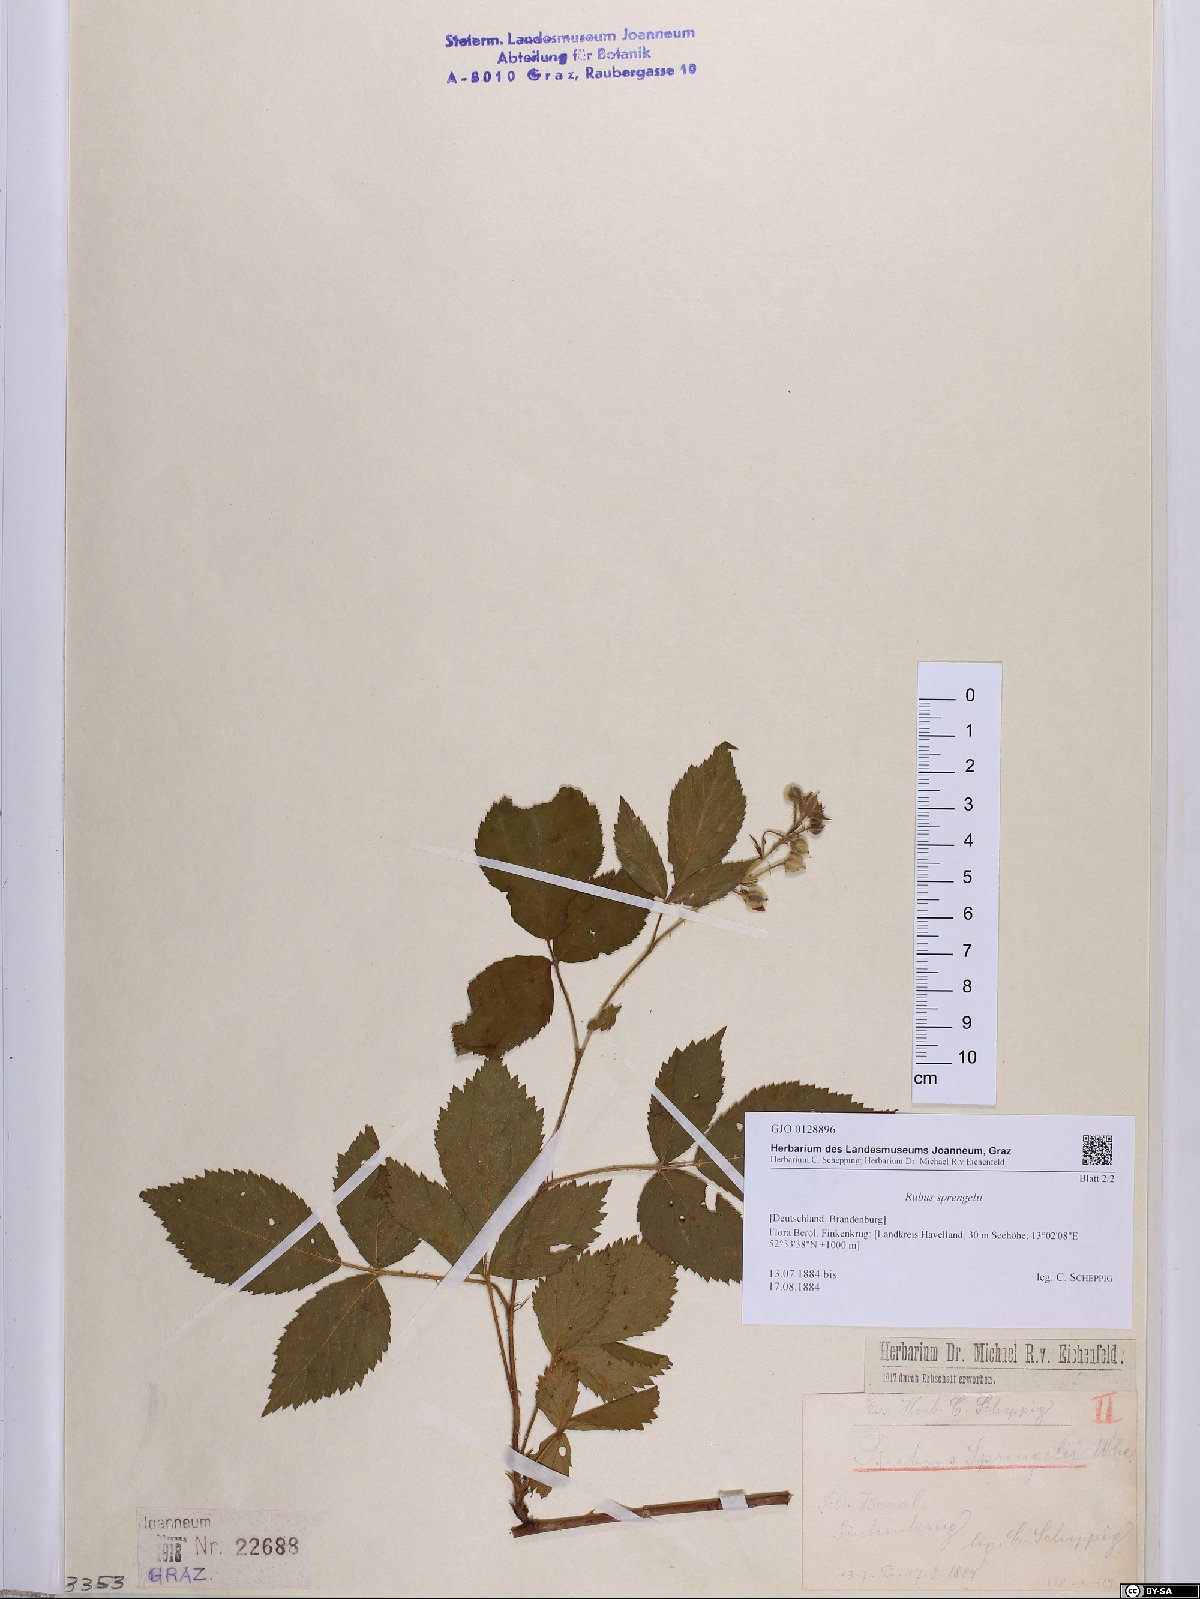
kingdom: Plantae
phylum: Tracheophyta
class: Magnoliopsida
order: Rosales
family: Rosaceae
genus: Rubus
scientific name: Rubus sprengelii
